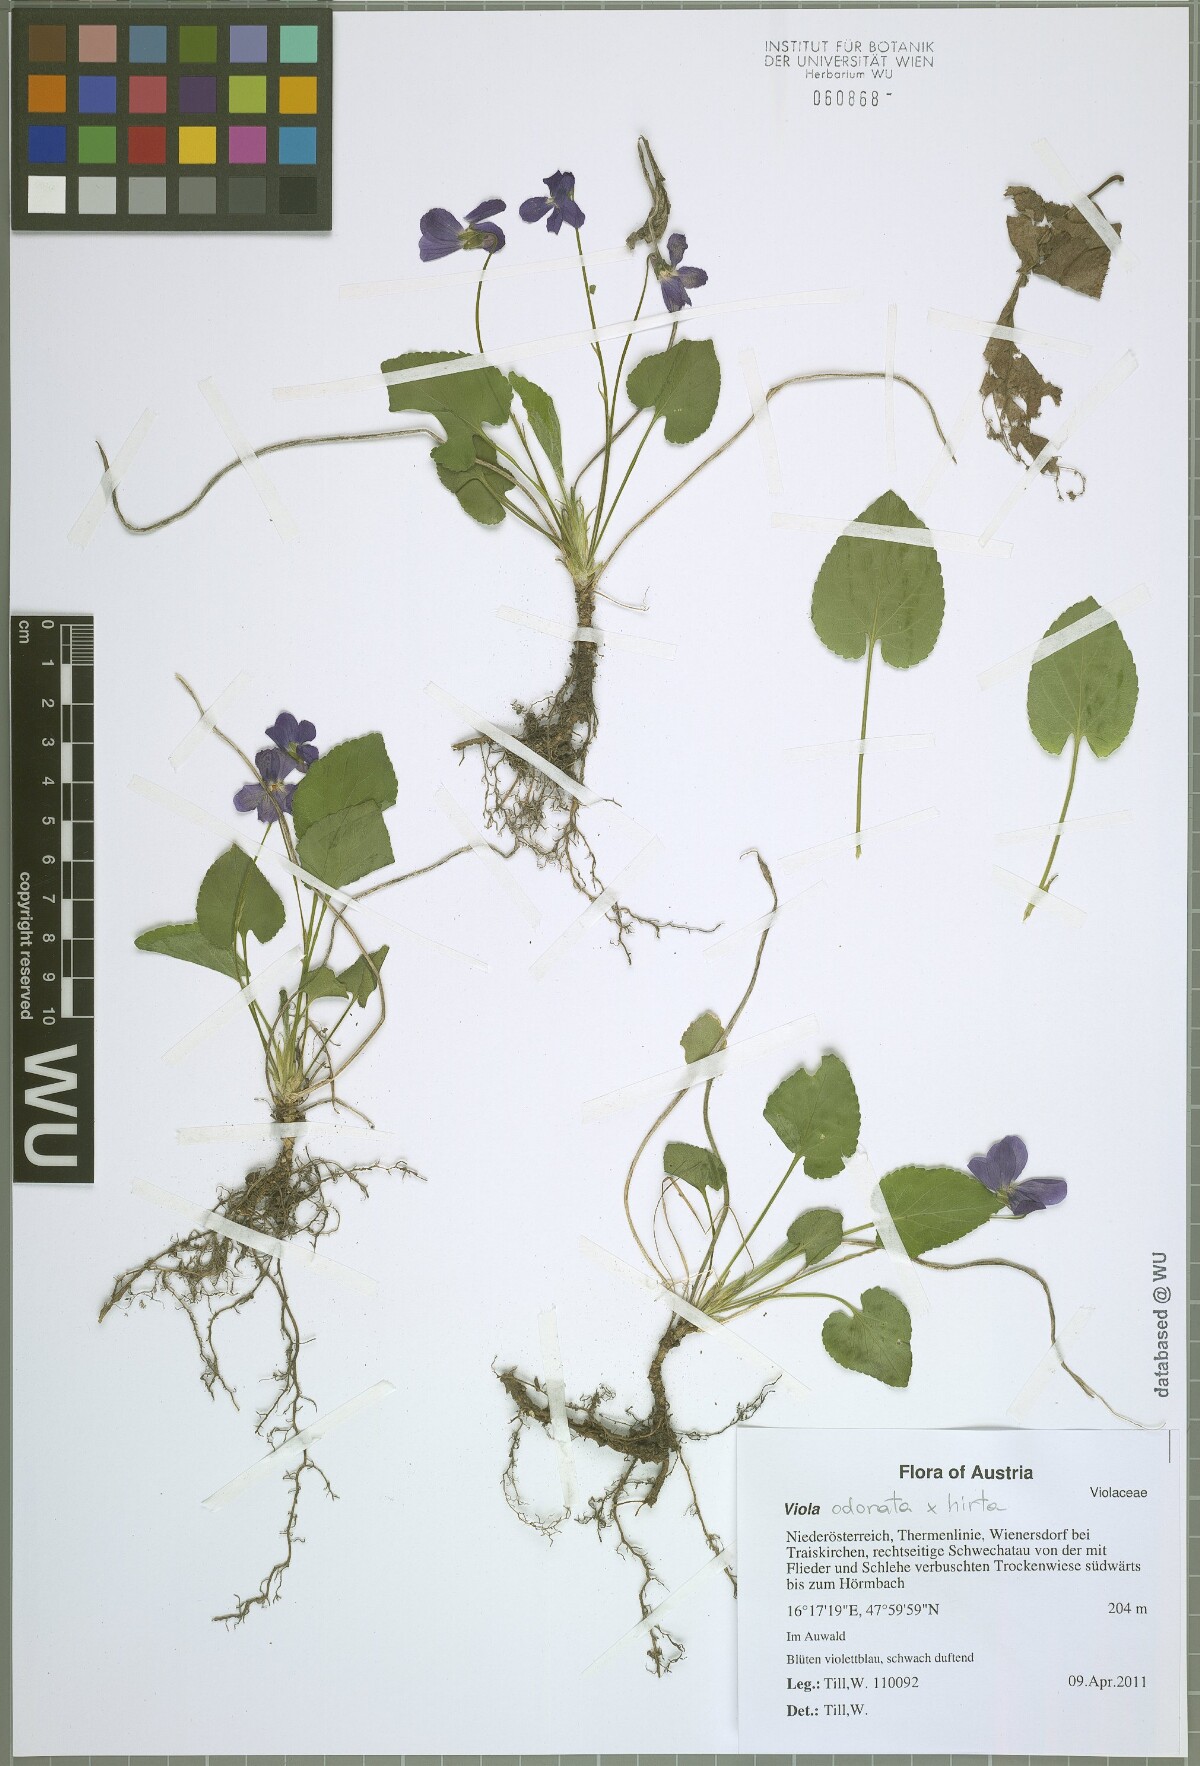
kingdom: Plantae
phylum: Tracheophyta
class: Magnoliopsida
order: Malpighiales
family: Violaceae
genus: Viola
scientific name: Viola scabra
